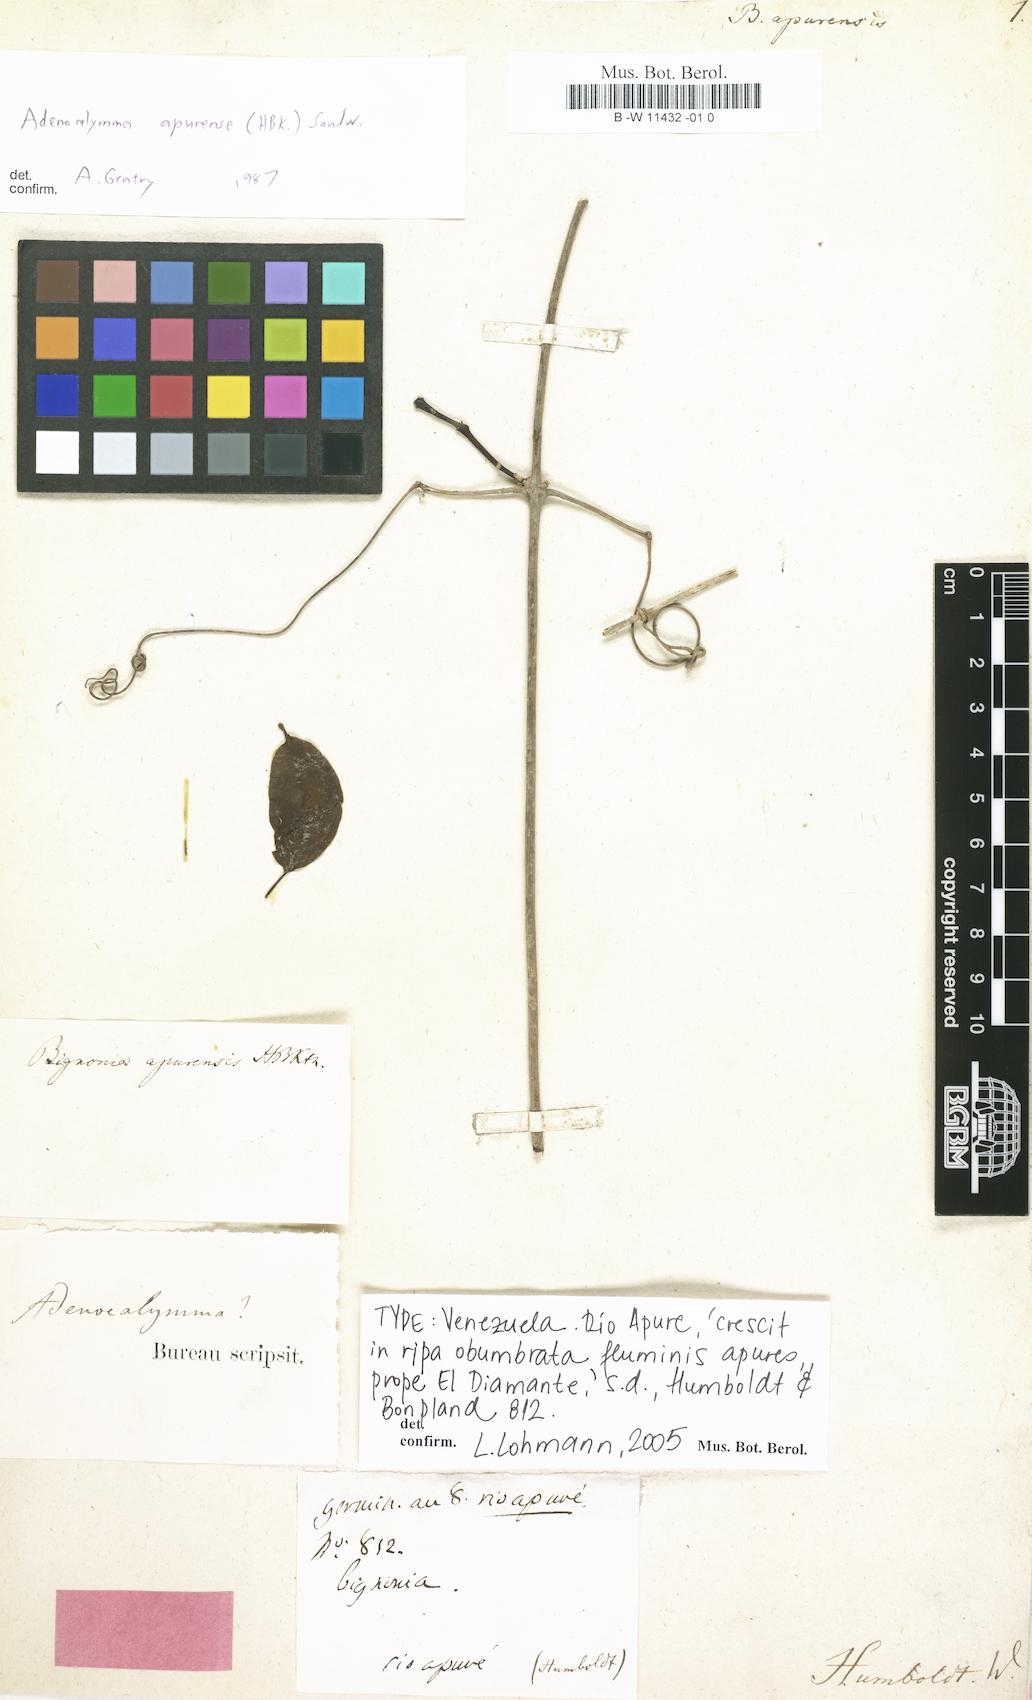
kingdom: Plantae
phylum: Tracheophyta
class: Magnoliopsida
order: Lamiales
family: Bignoniaceae
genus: Adenocalymma
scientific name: Adenocalymma apurense
